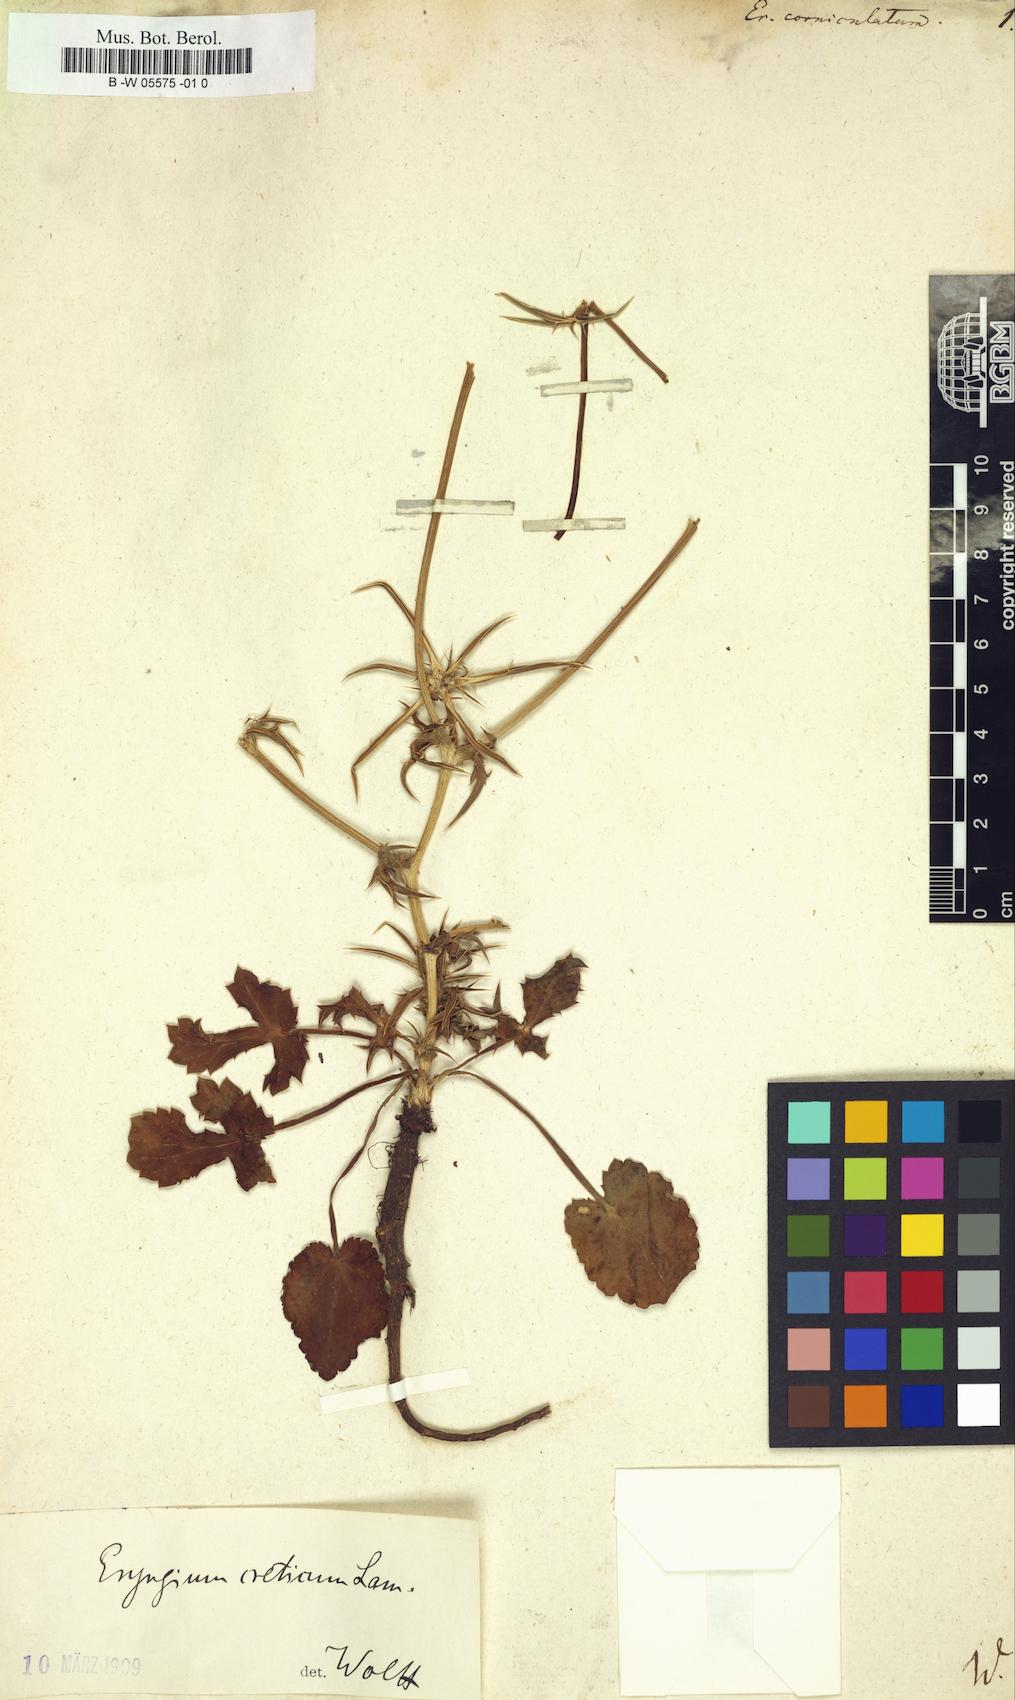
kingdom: Plantae
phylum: Tracheophyta
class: Magnoliopsida
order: Apiales
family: Apiaceae
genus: Eryngium
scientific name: Eryngium corniculatum
